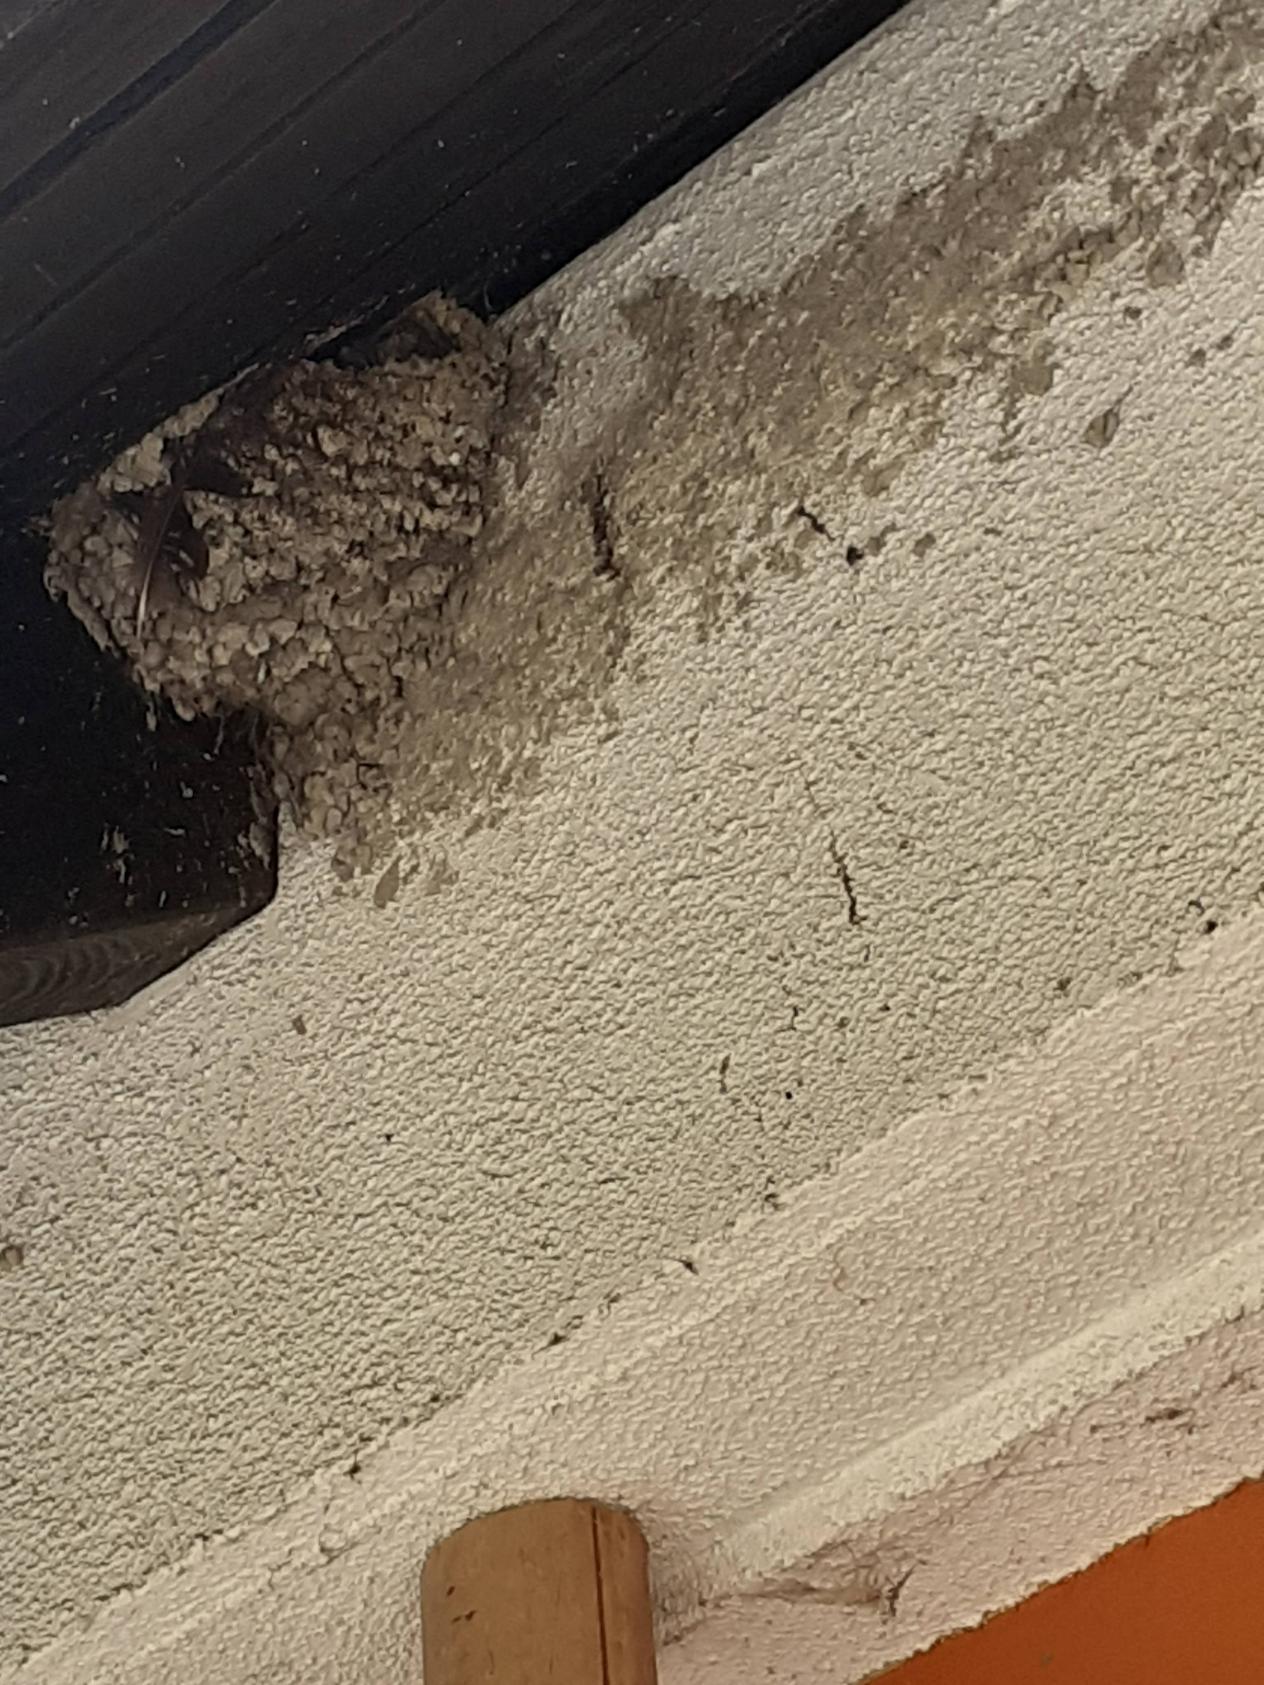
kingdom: Animalia
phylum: Chordata
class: Aves
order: Passeriformes
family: Hirundinidae
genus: Hirundo
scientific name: Hirundo rustica
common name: Landsvale
